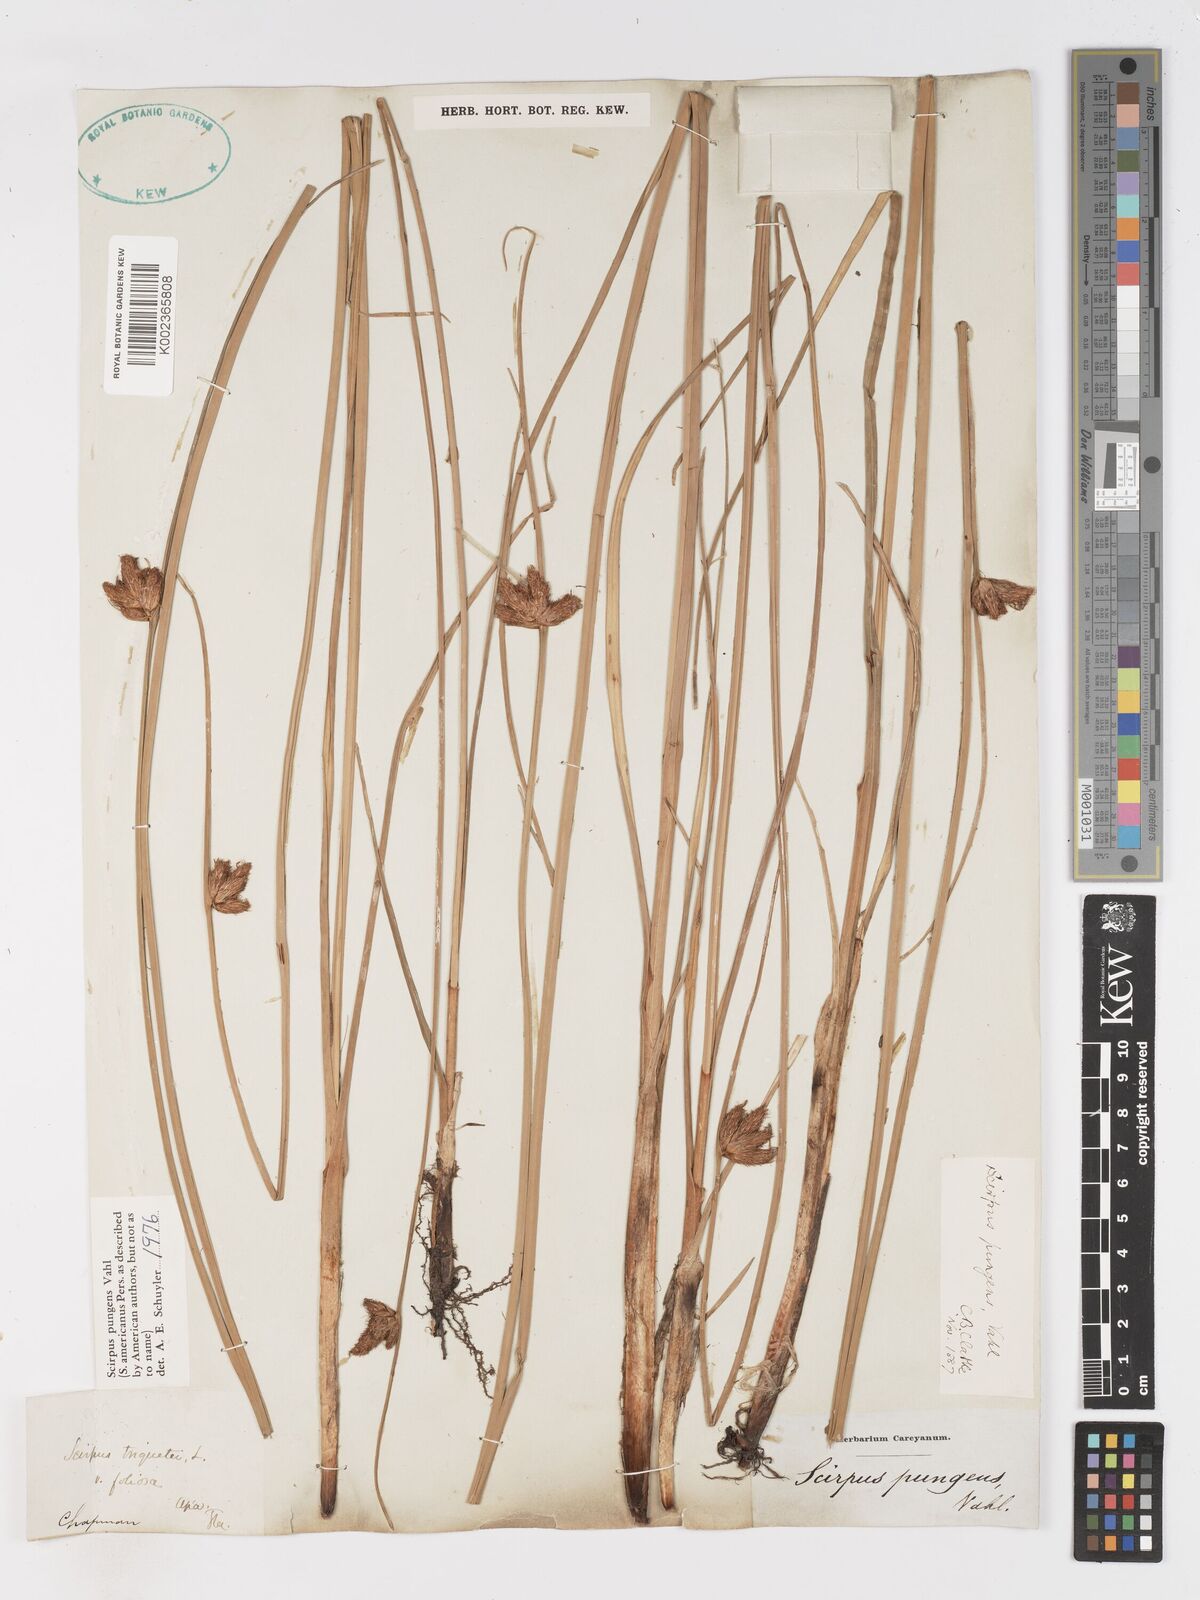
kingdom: Plantae
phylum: Tracheophyta
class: Liliopsida
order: Poales
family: Cyperaceae
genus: Schoenoplectus
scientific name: Schoenoplectus pungens
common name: Sharp club-rush
